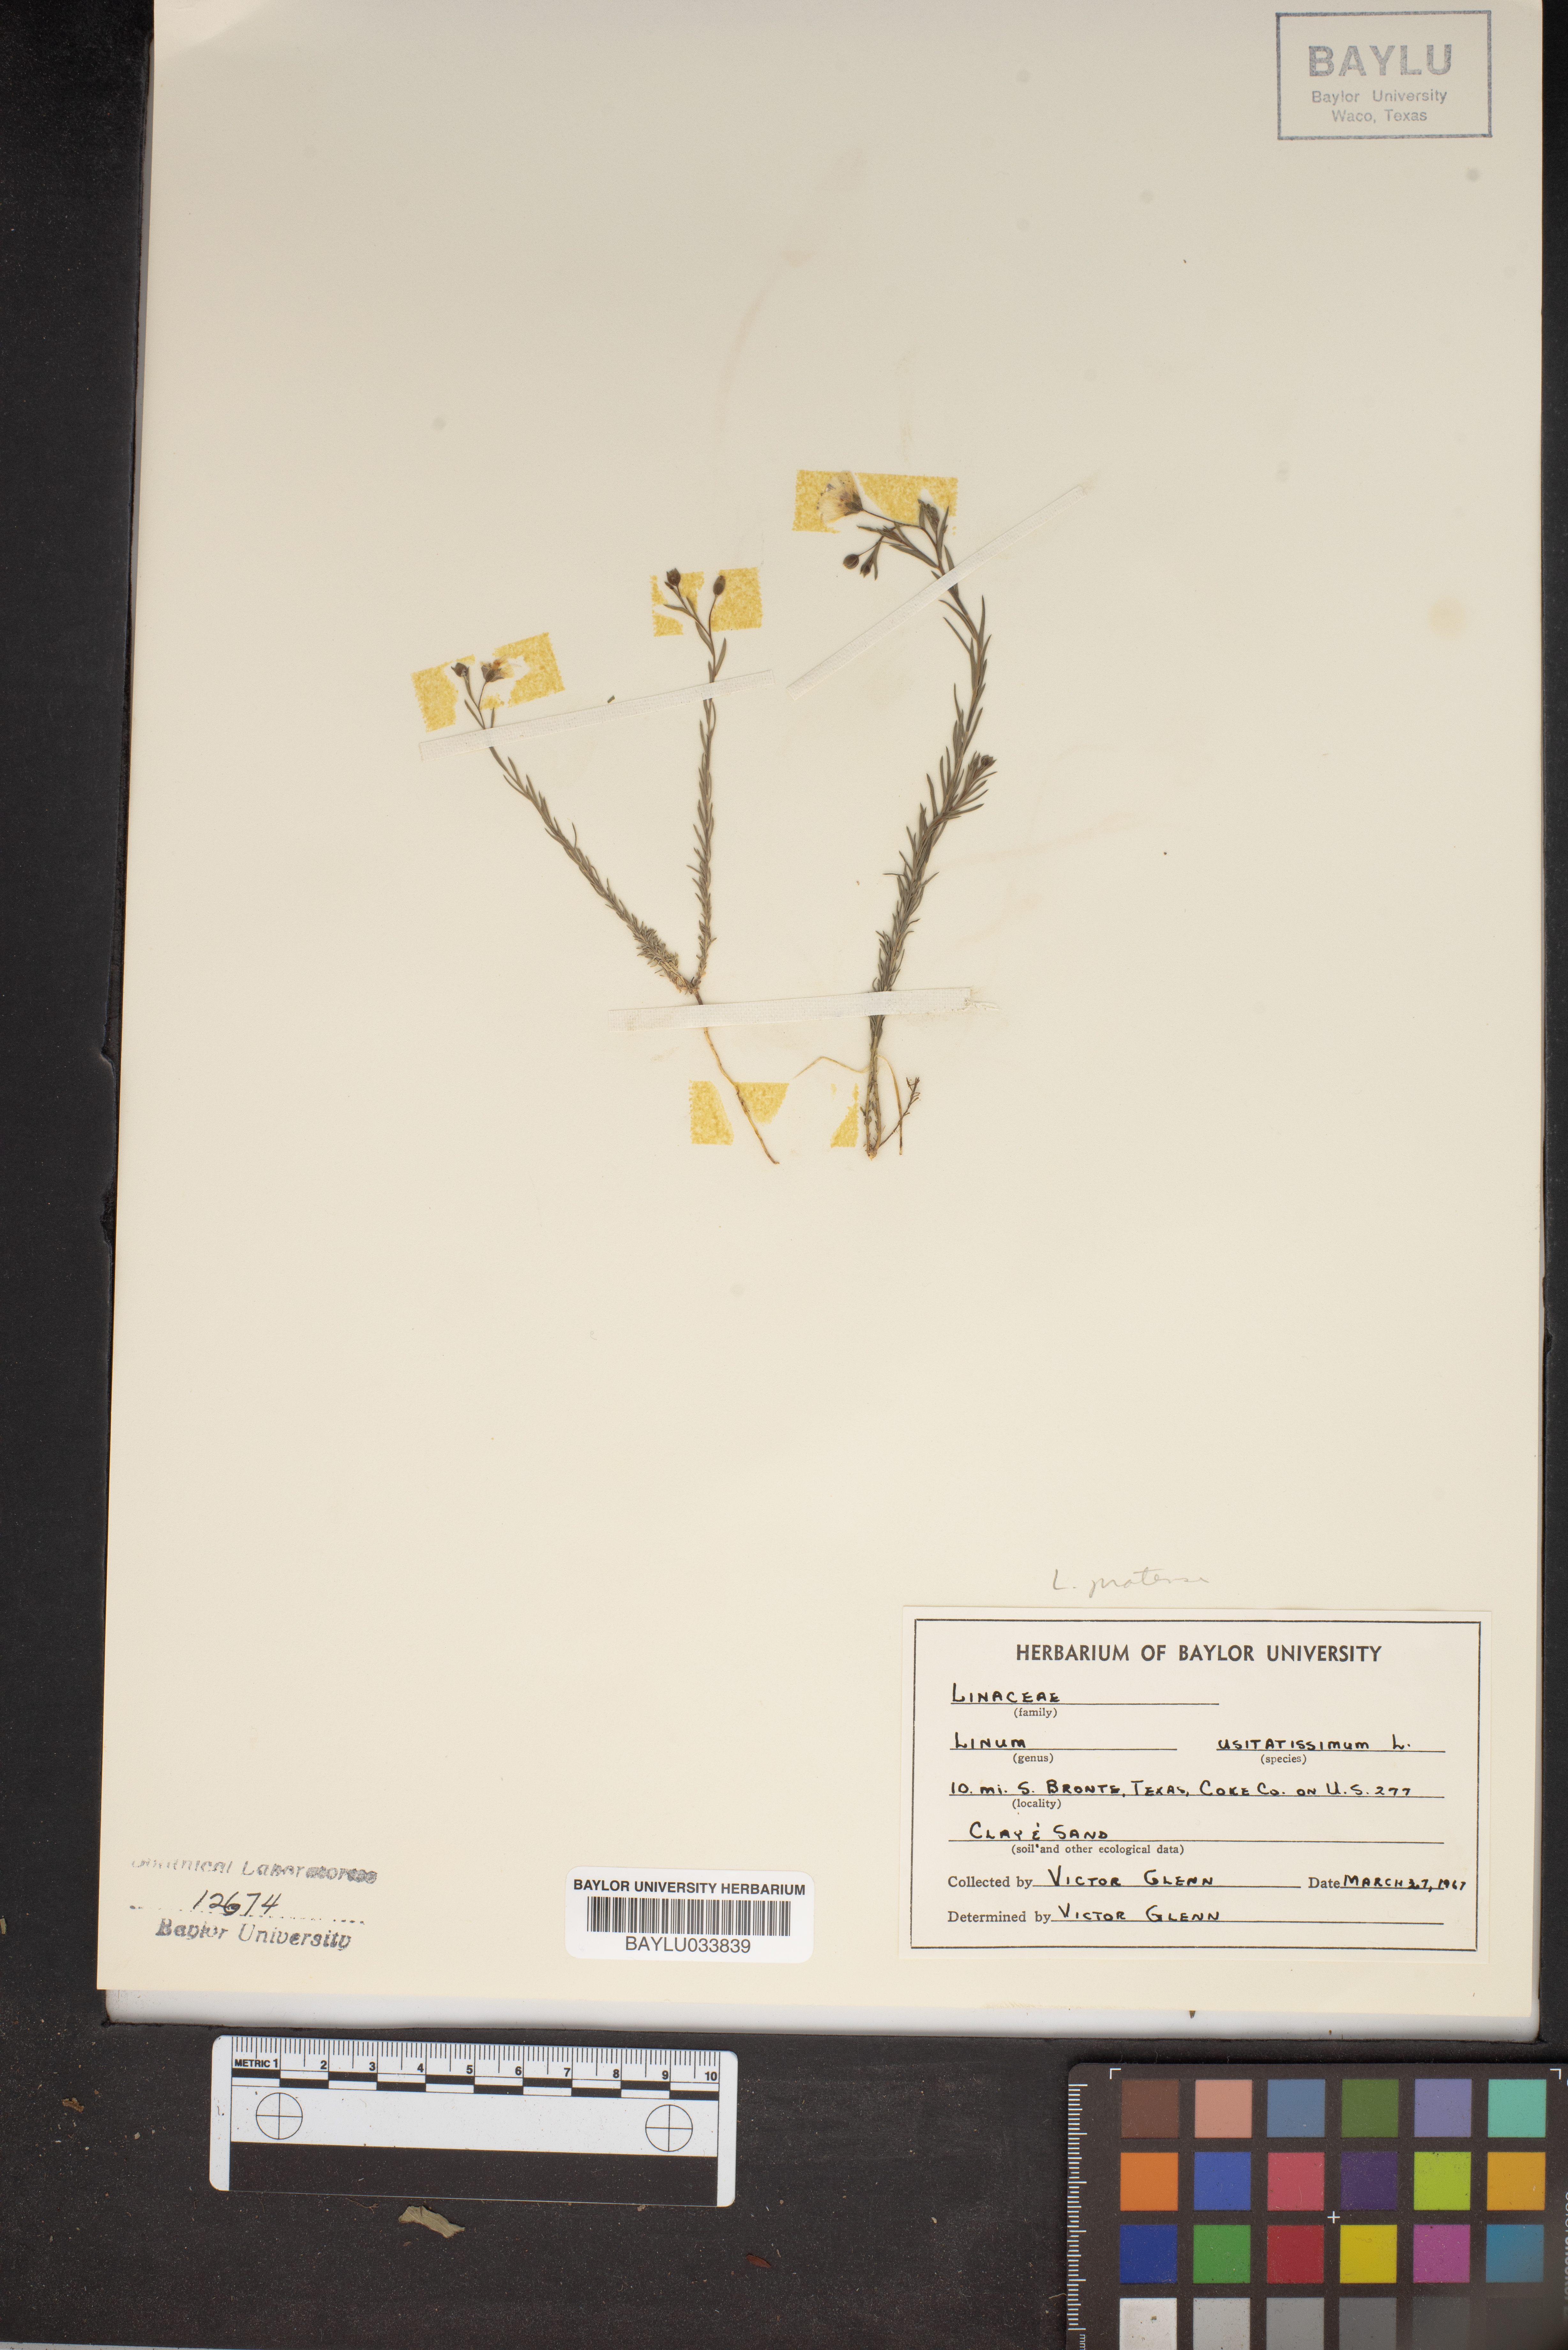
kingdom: Plantae
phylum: Tracheophyta
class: Magnoliopsida
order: Malpighiales
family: Linaceae
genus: Linum
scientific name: Linum usitatissimum
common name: Flax
